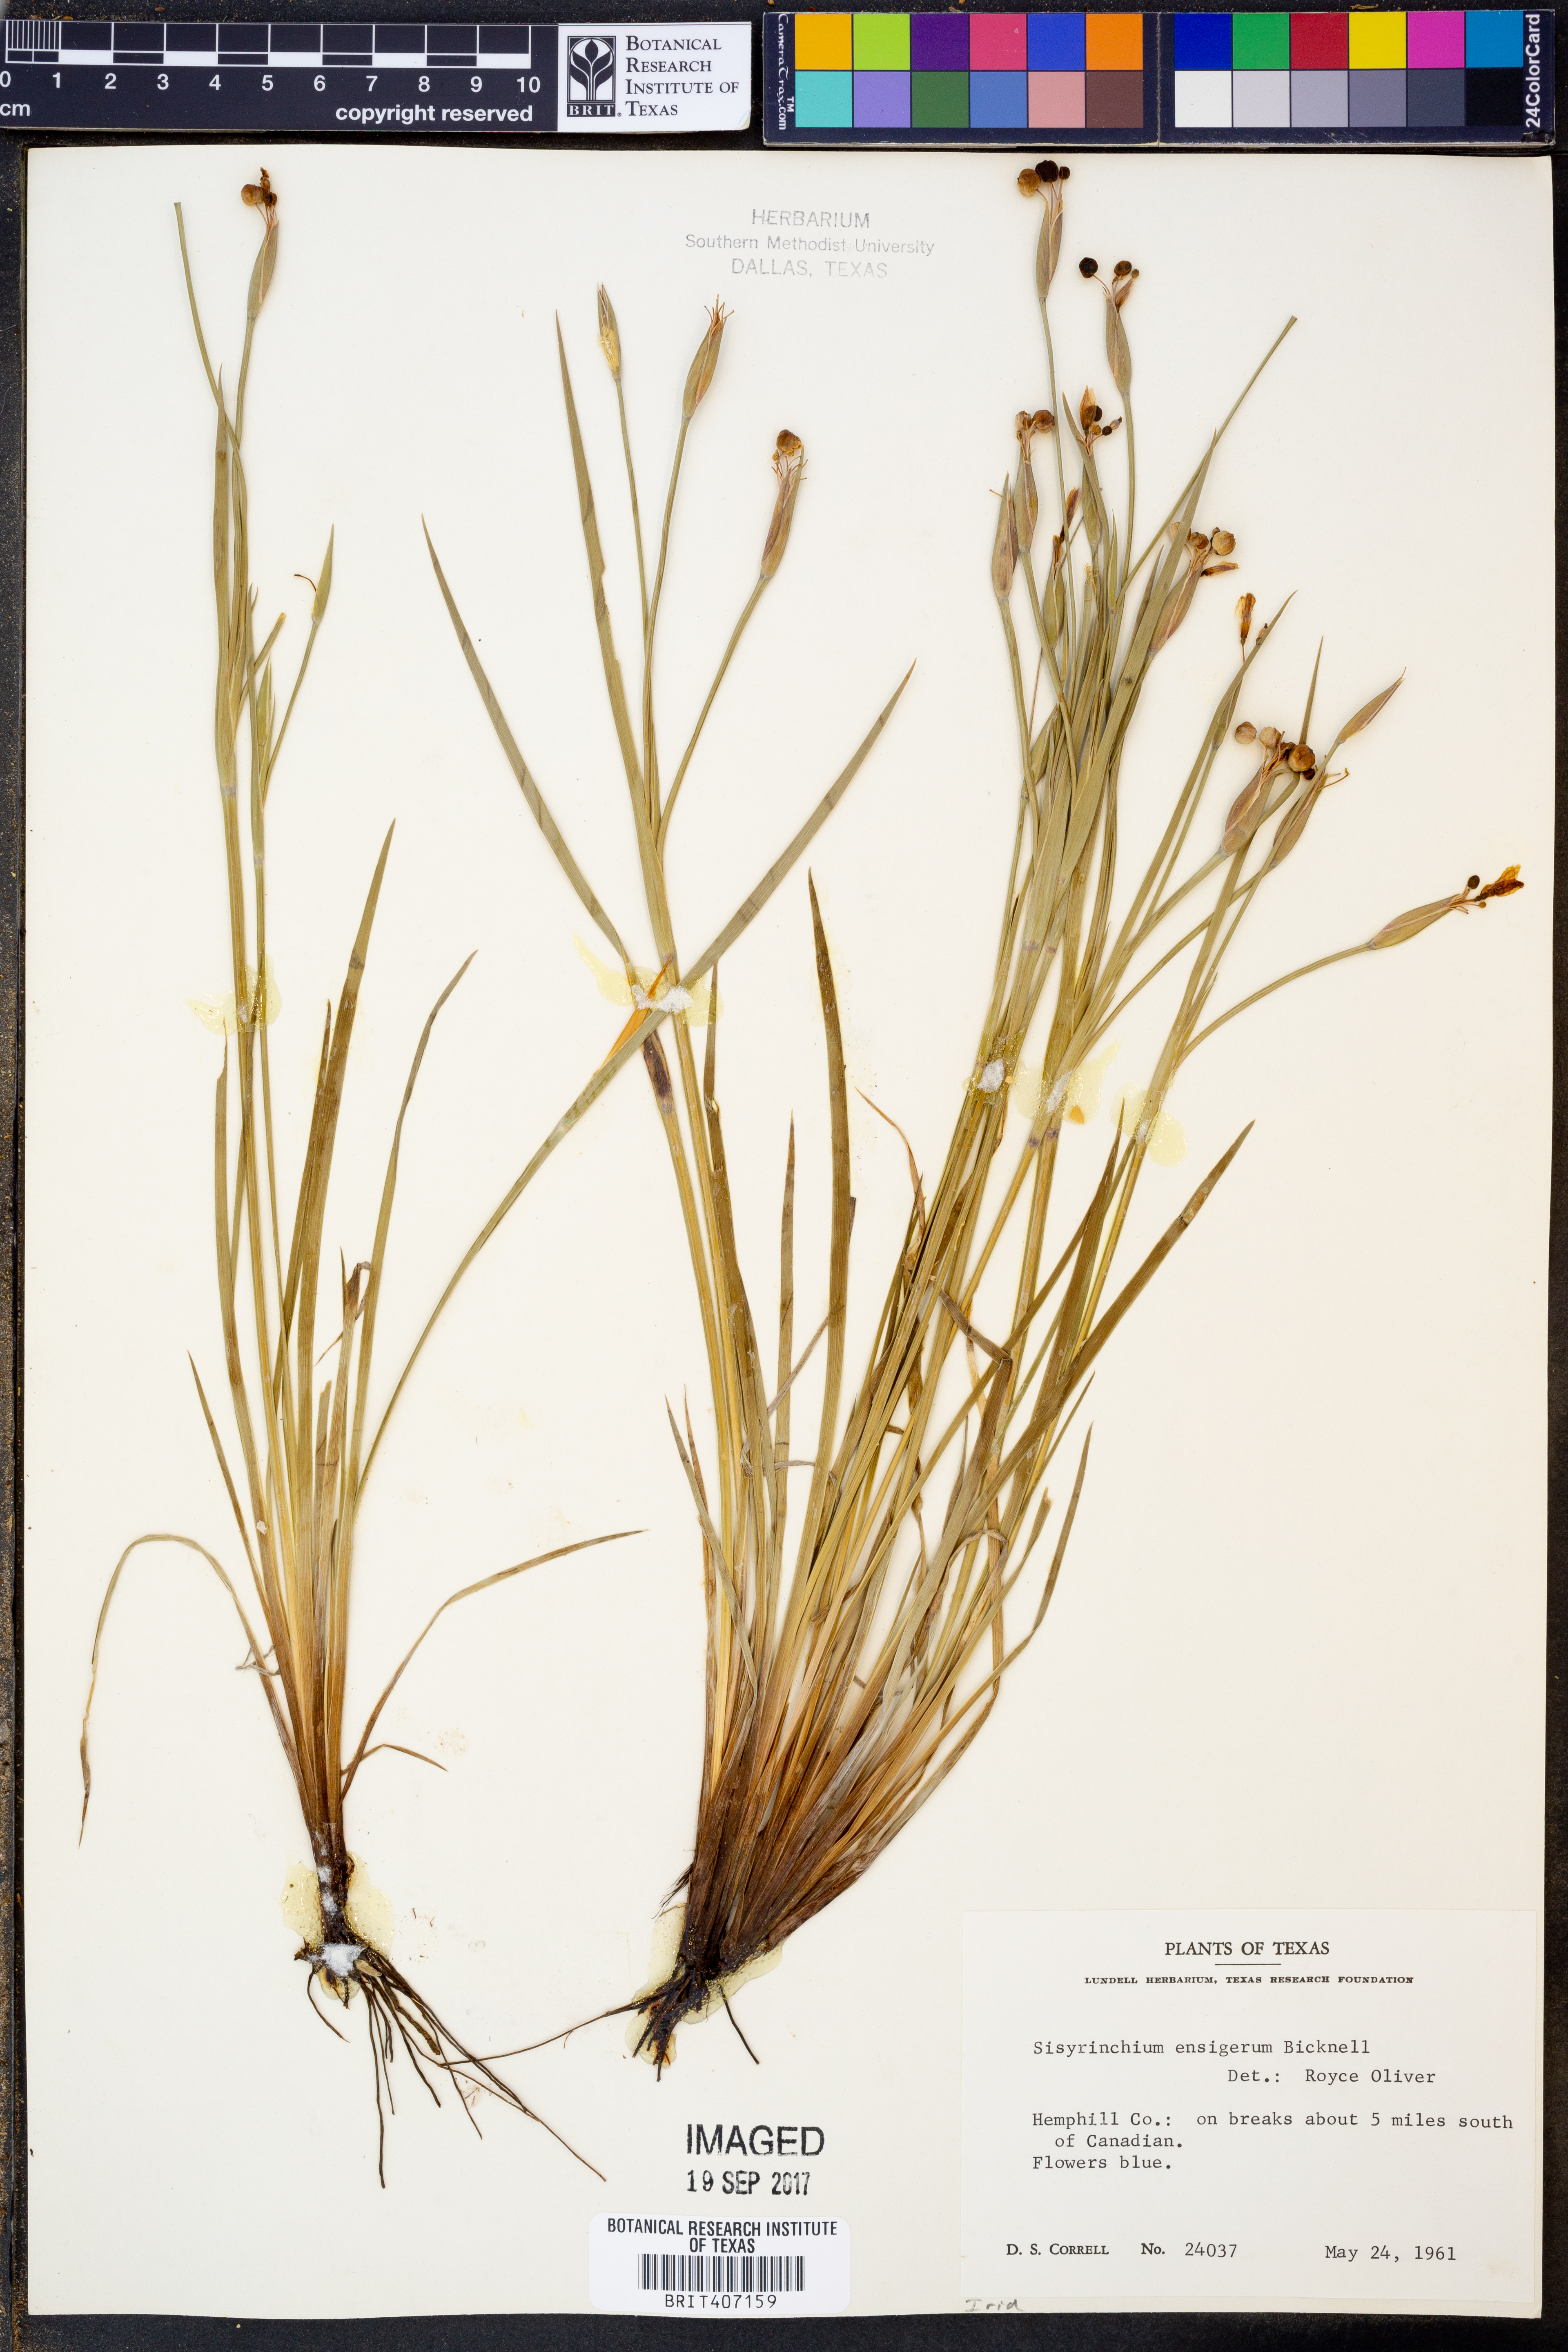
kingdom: Plantae
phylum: Tracheophyta
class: Liliopsida
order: Asparagales
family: Iridaceae
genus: Sisyrinchium
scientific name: Sisyrinchium ensigerum
